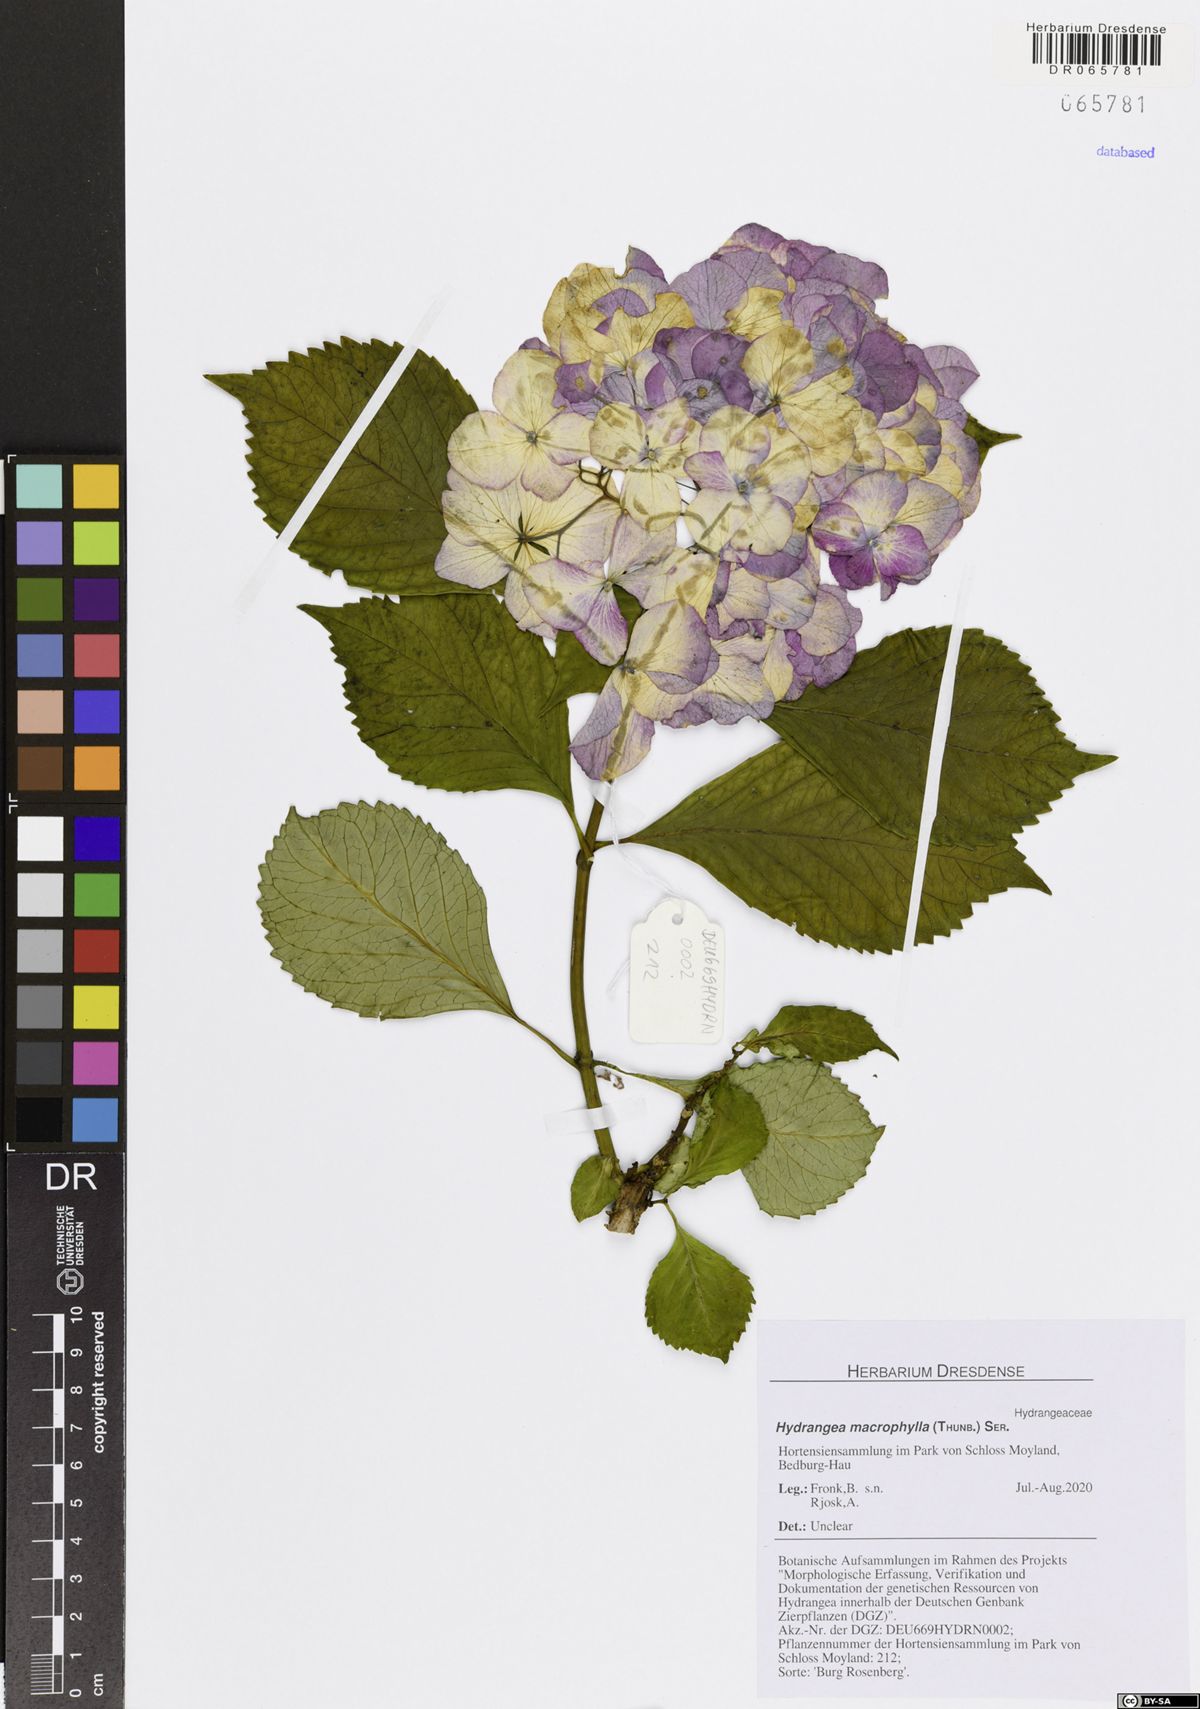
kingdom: Plantae
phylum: Tracheophyta
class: Magnoliopsida
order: Cornales
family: Hydrangeaceae
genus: Hydrangea
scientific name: Hydrangea macrophylla
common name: Hydrangea
